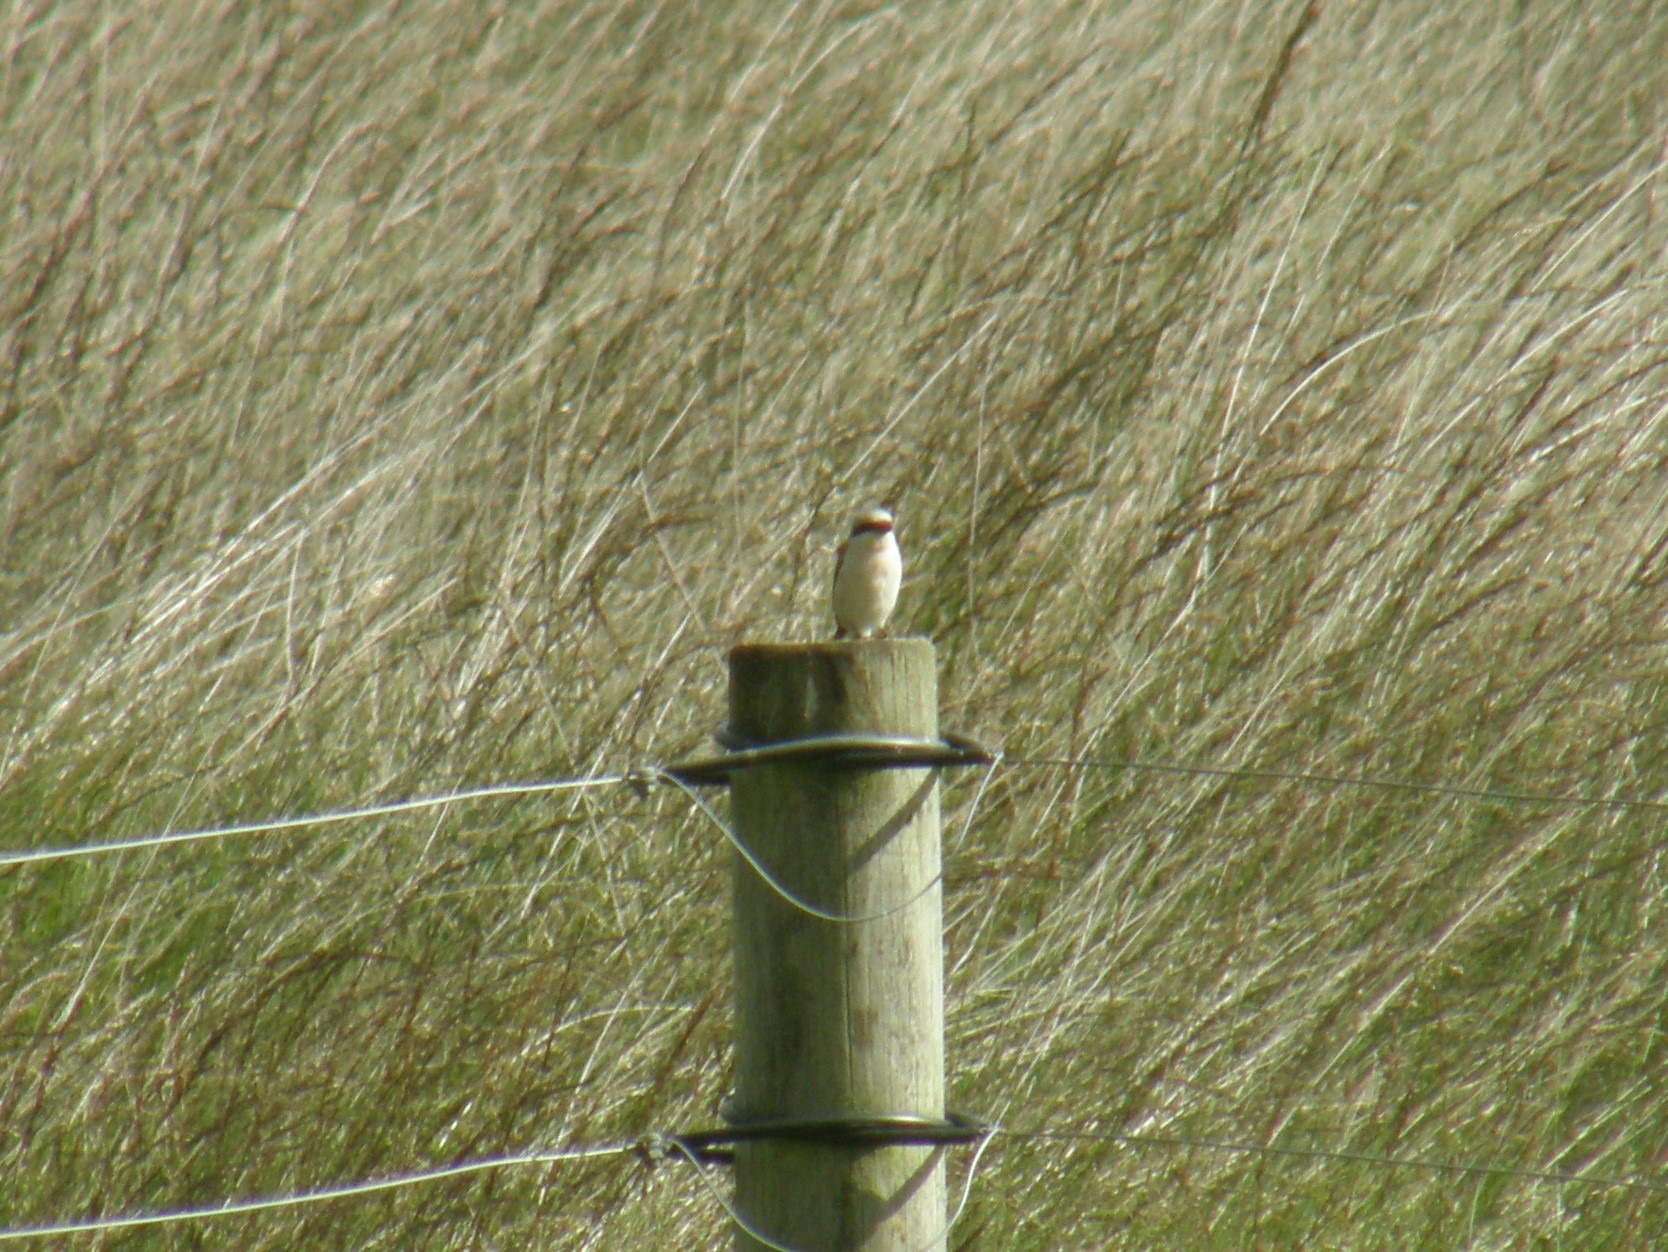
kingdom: Animalia
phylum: Chordata
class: Aves
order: Passeriformes
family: Laniidae
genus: Lanius
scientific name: Lanius collurio
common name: Rødrygget tornskade
